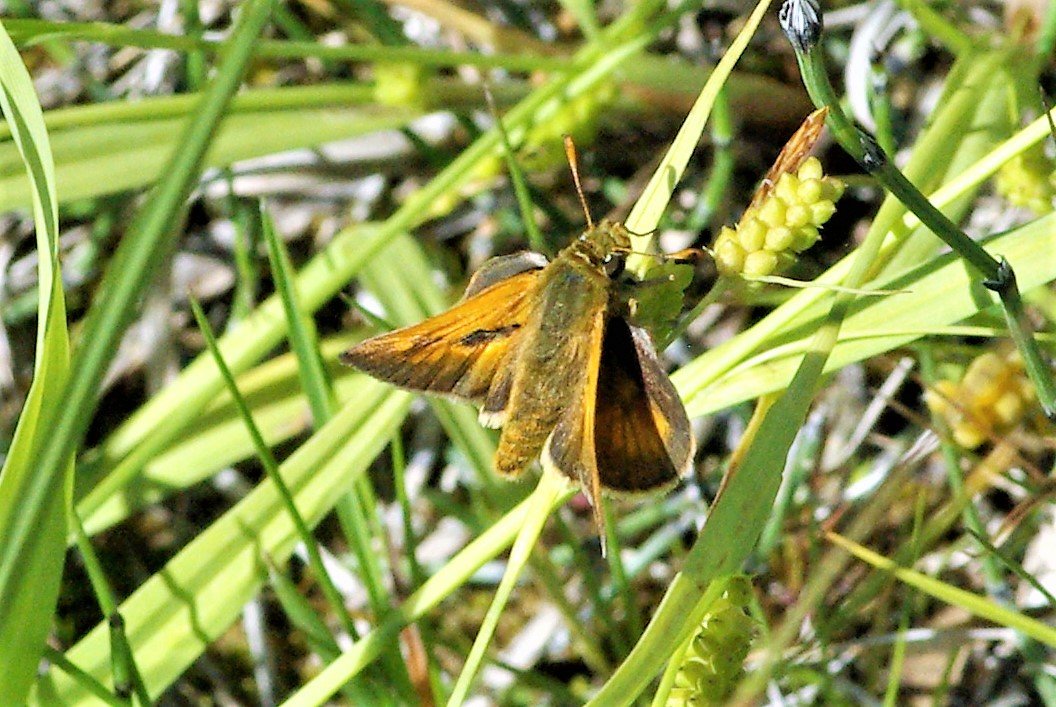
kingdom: Animalia
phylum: Arthropoda
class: Insecta
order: Lepidoptera
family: Hesperiidae
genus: Hesperia
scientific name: Hesperia sassacus
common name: Sassacus Skipper
